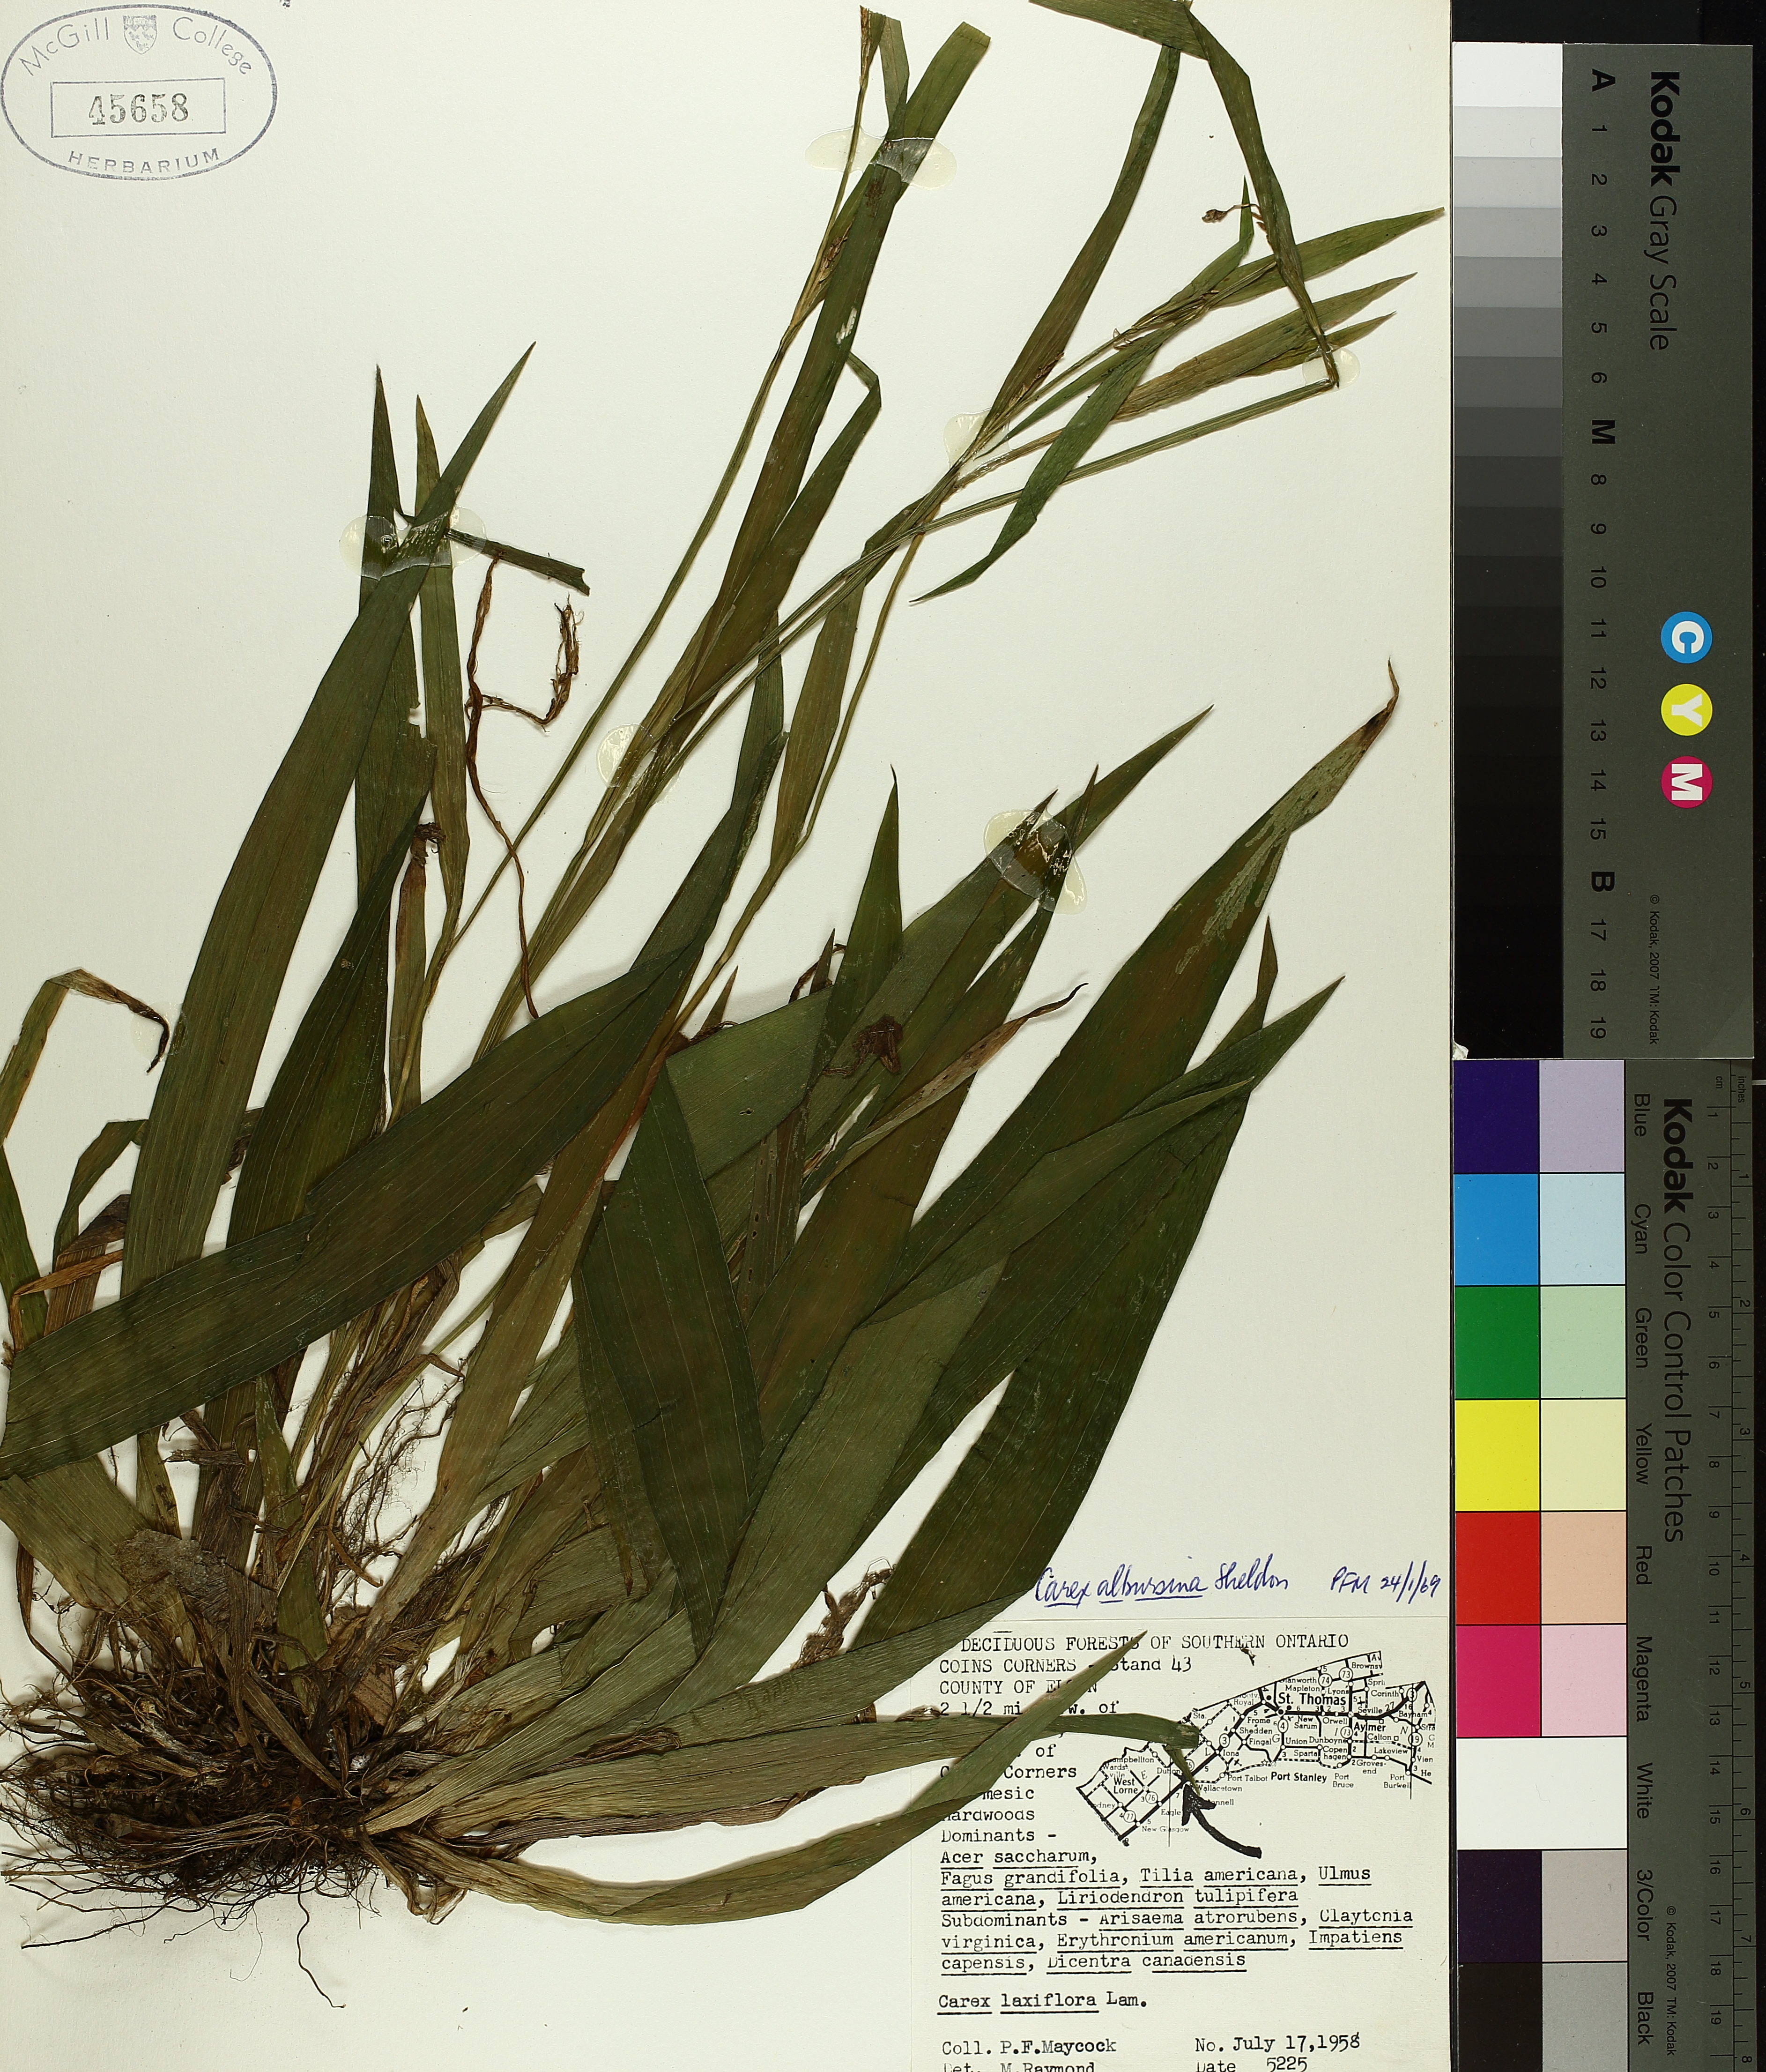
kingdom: Plantae
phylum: Tracheophyta
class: Liliopsida
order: Poales
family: Cyperaceae
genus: Carex
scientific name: Carex albursina
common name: Blunt-scale wood sedge
